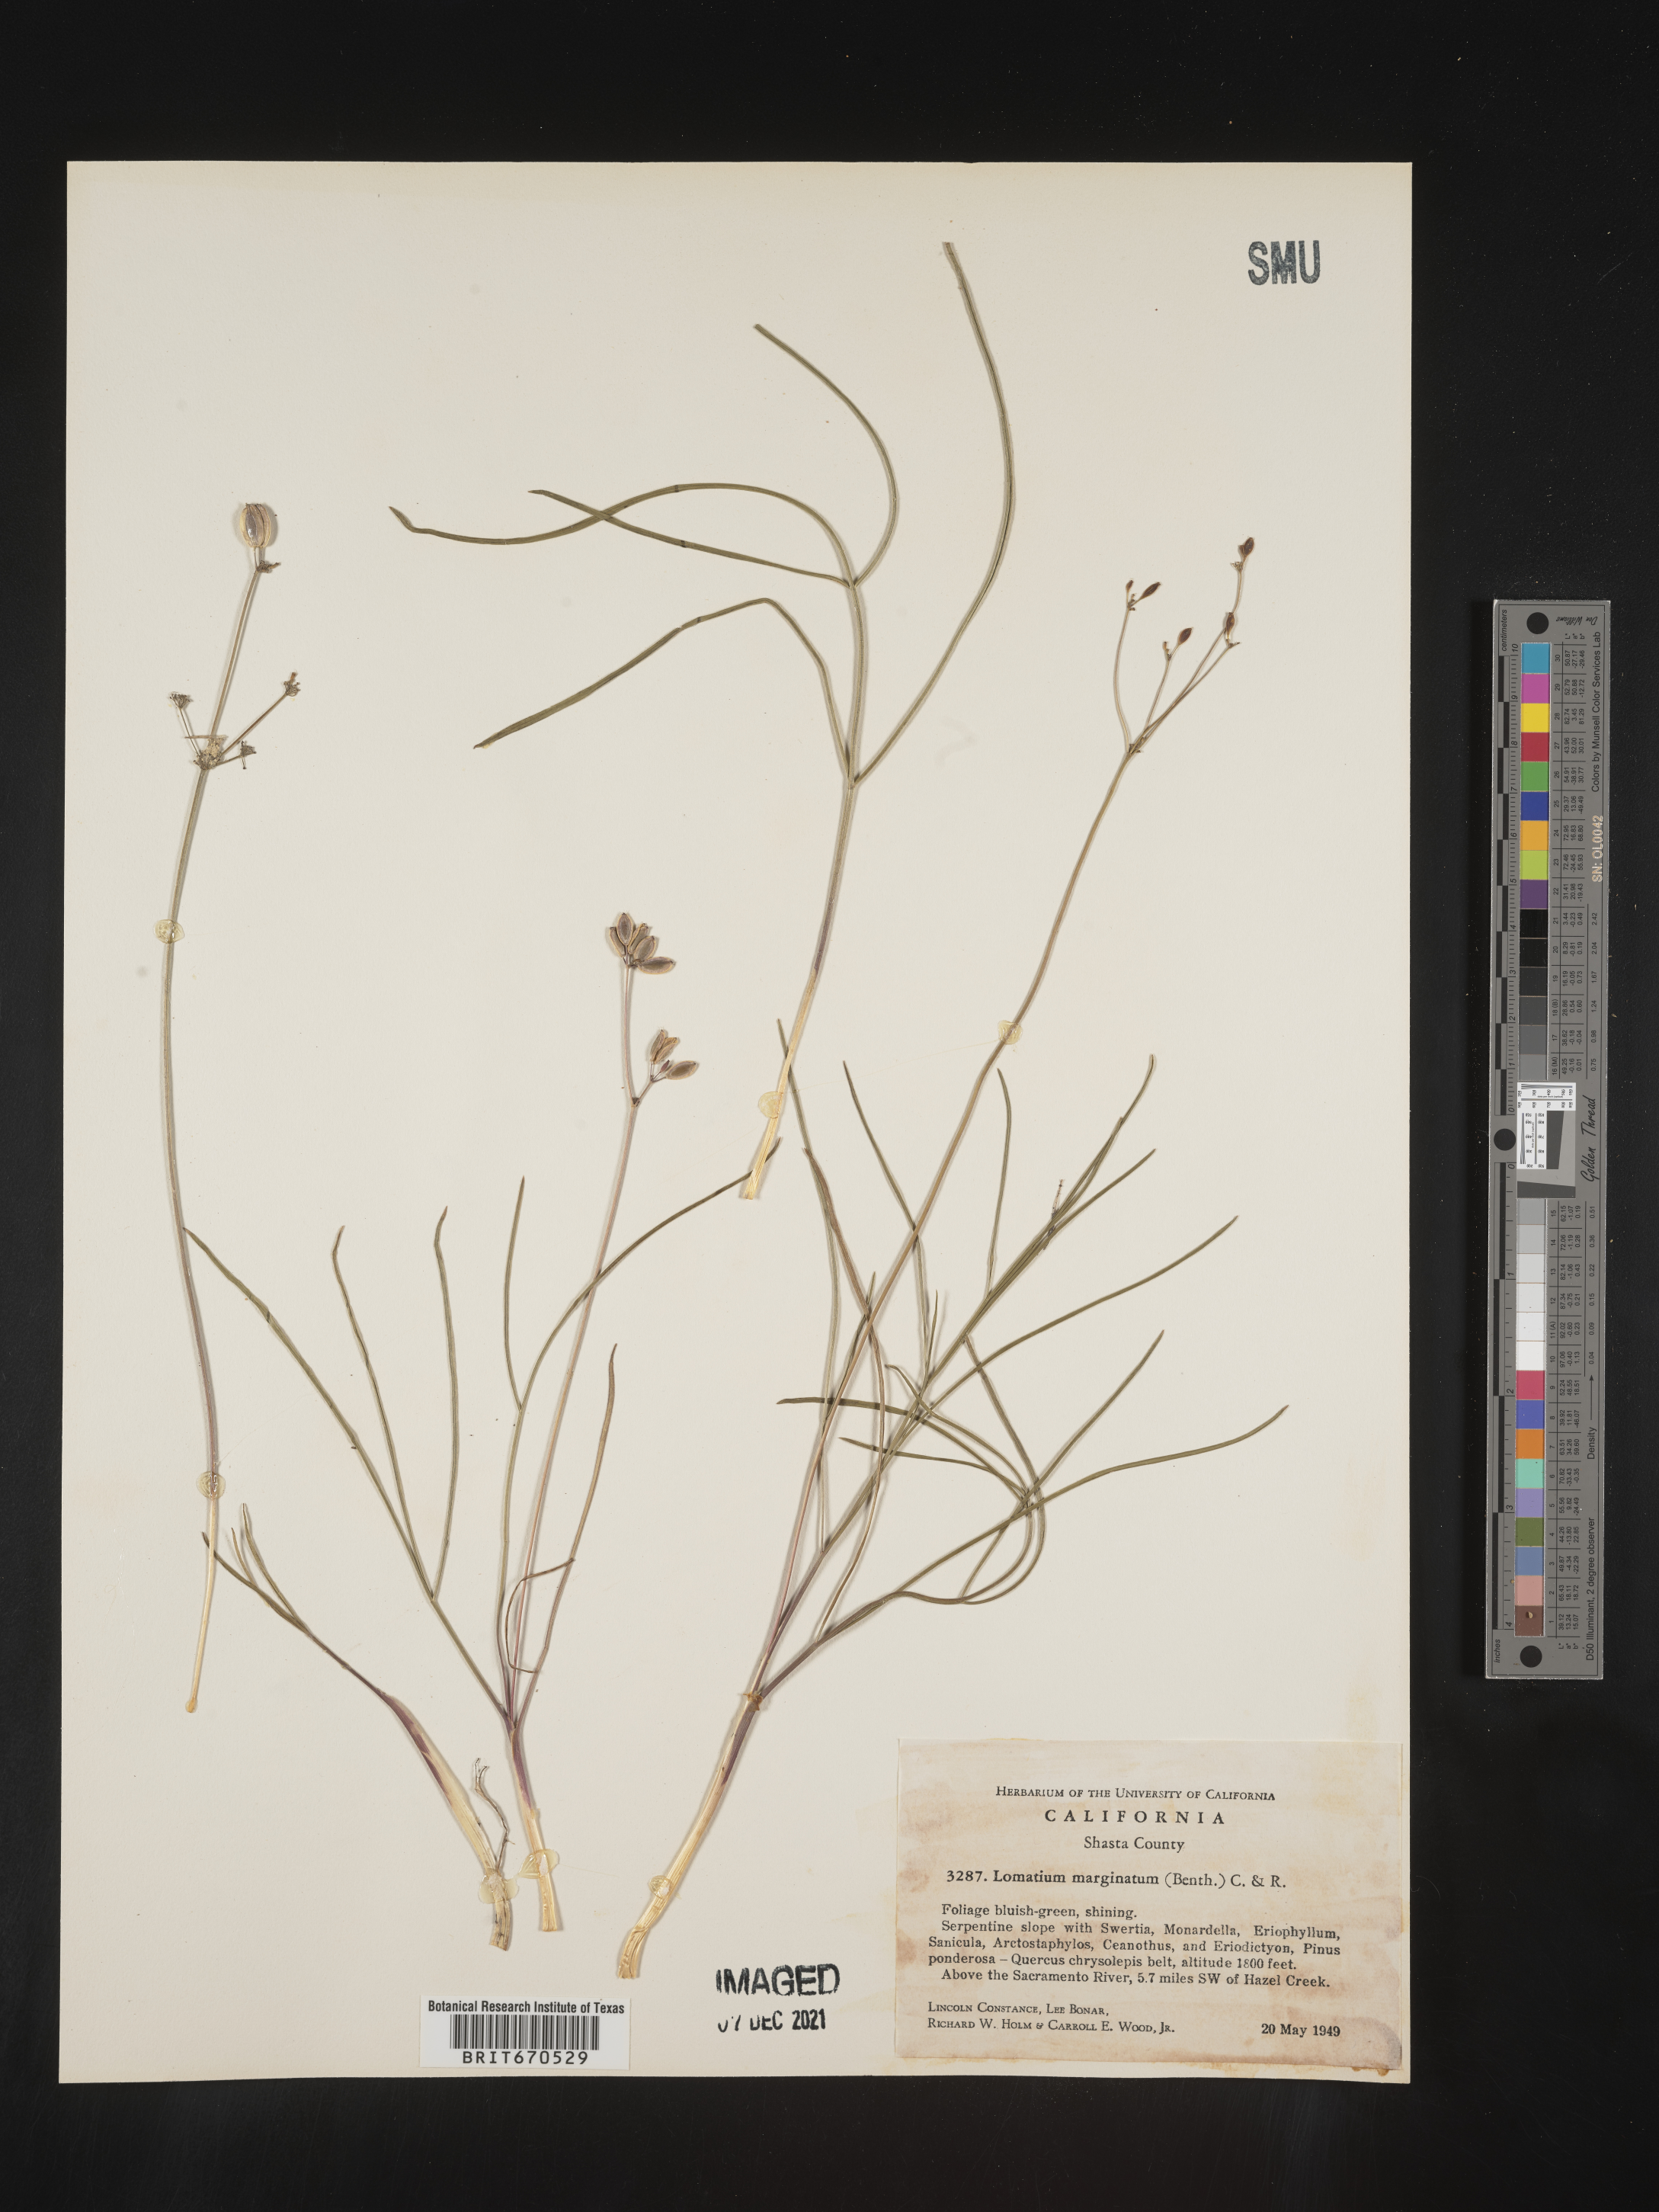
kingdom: Plantae
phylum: Tracheophyta
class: Magnoliopsida
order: Apiales
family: Apiaceae
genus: Lomatium
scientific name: Lomatium marginatum
